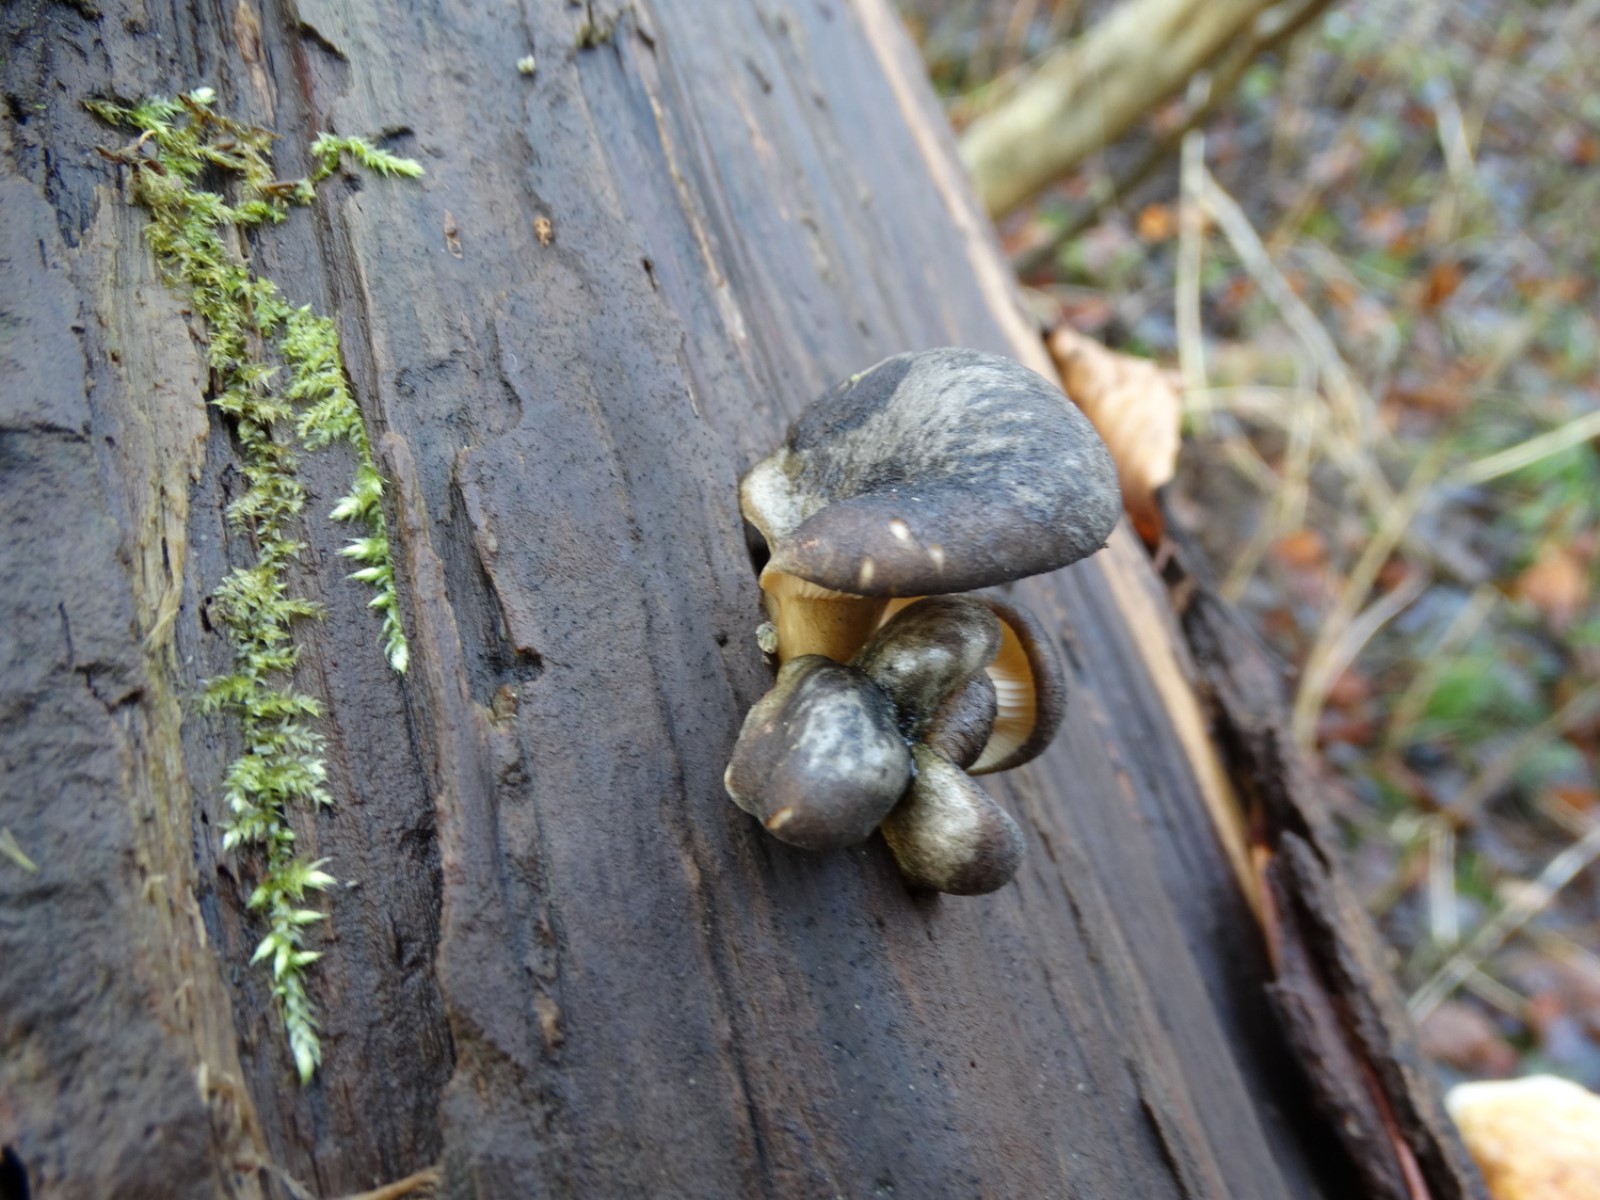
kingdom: Fungi
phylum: Basidiomycota
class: Agaricomycetes
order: Agaricales
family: Sarcomyxaceae
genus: Sarcomyxa
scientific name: Sarcomyxa serotina
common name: gummihat
